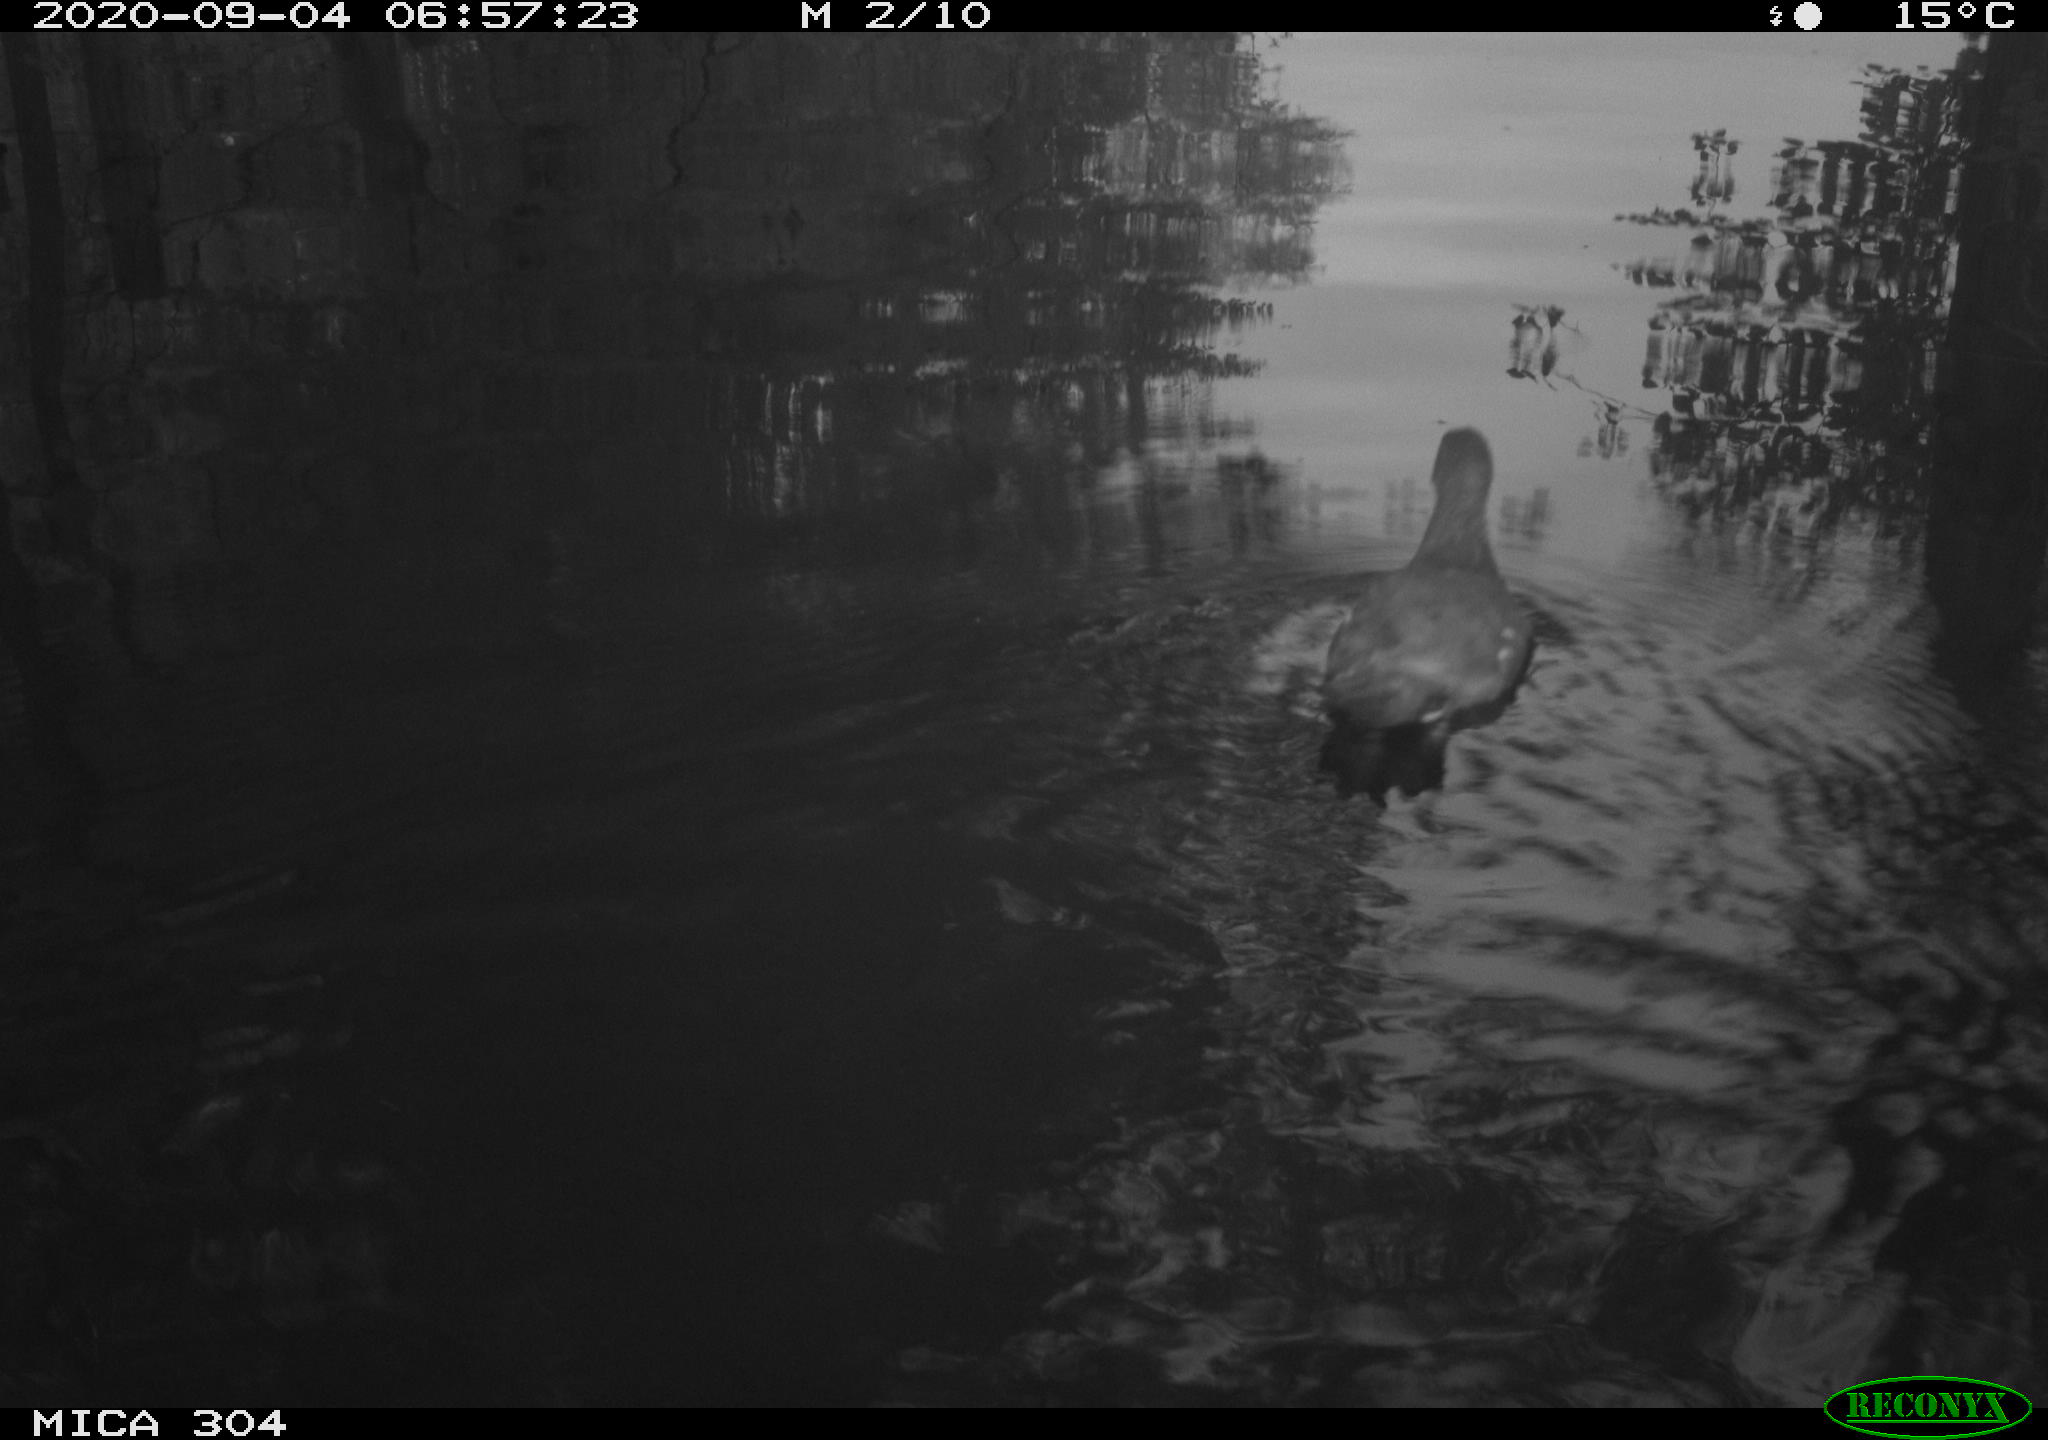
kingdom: Animalia
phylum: Chordata
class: Aves
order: Gruiformes
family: Rallidae
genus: Gallinula
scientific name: Gallinula chloropus
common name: Common moorhen
